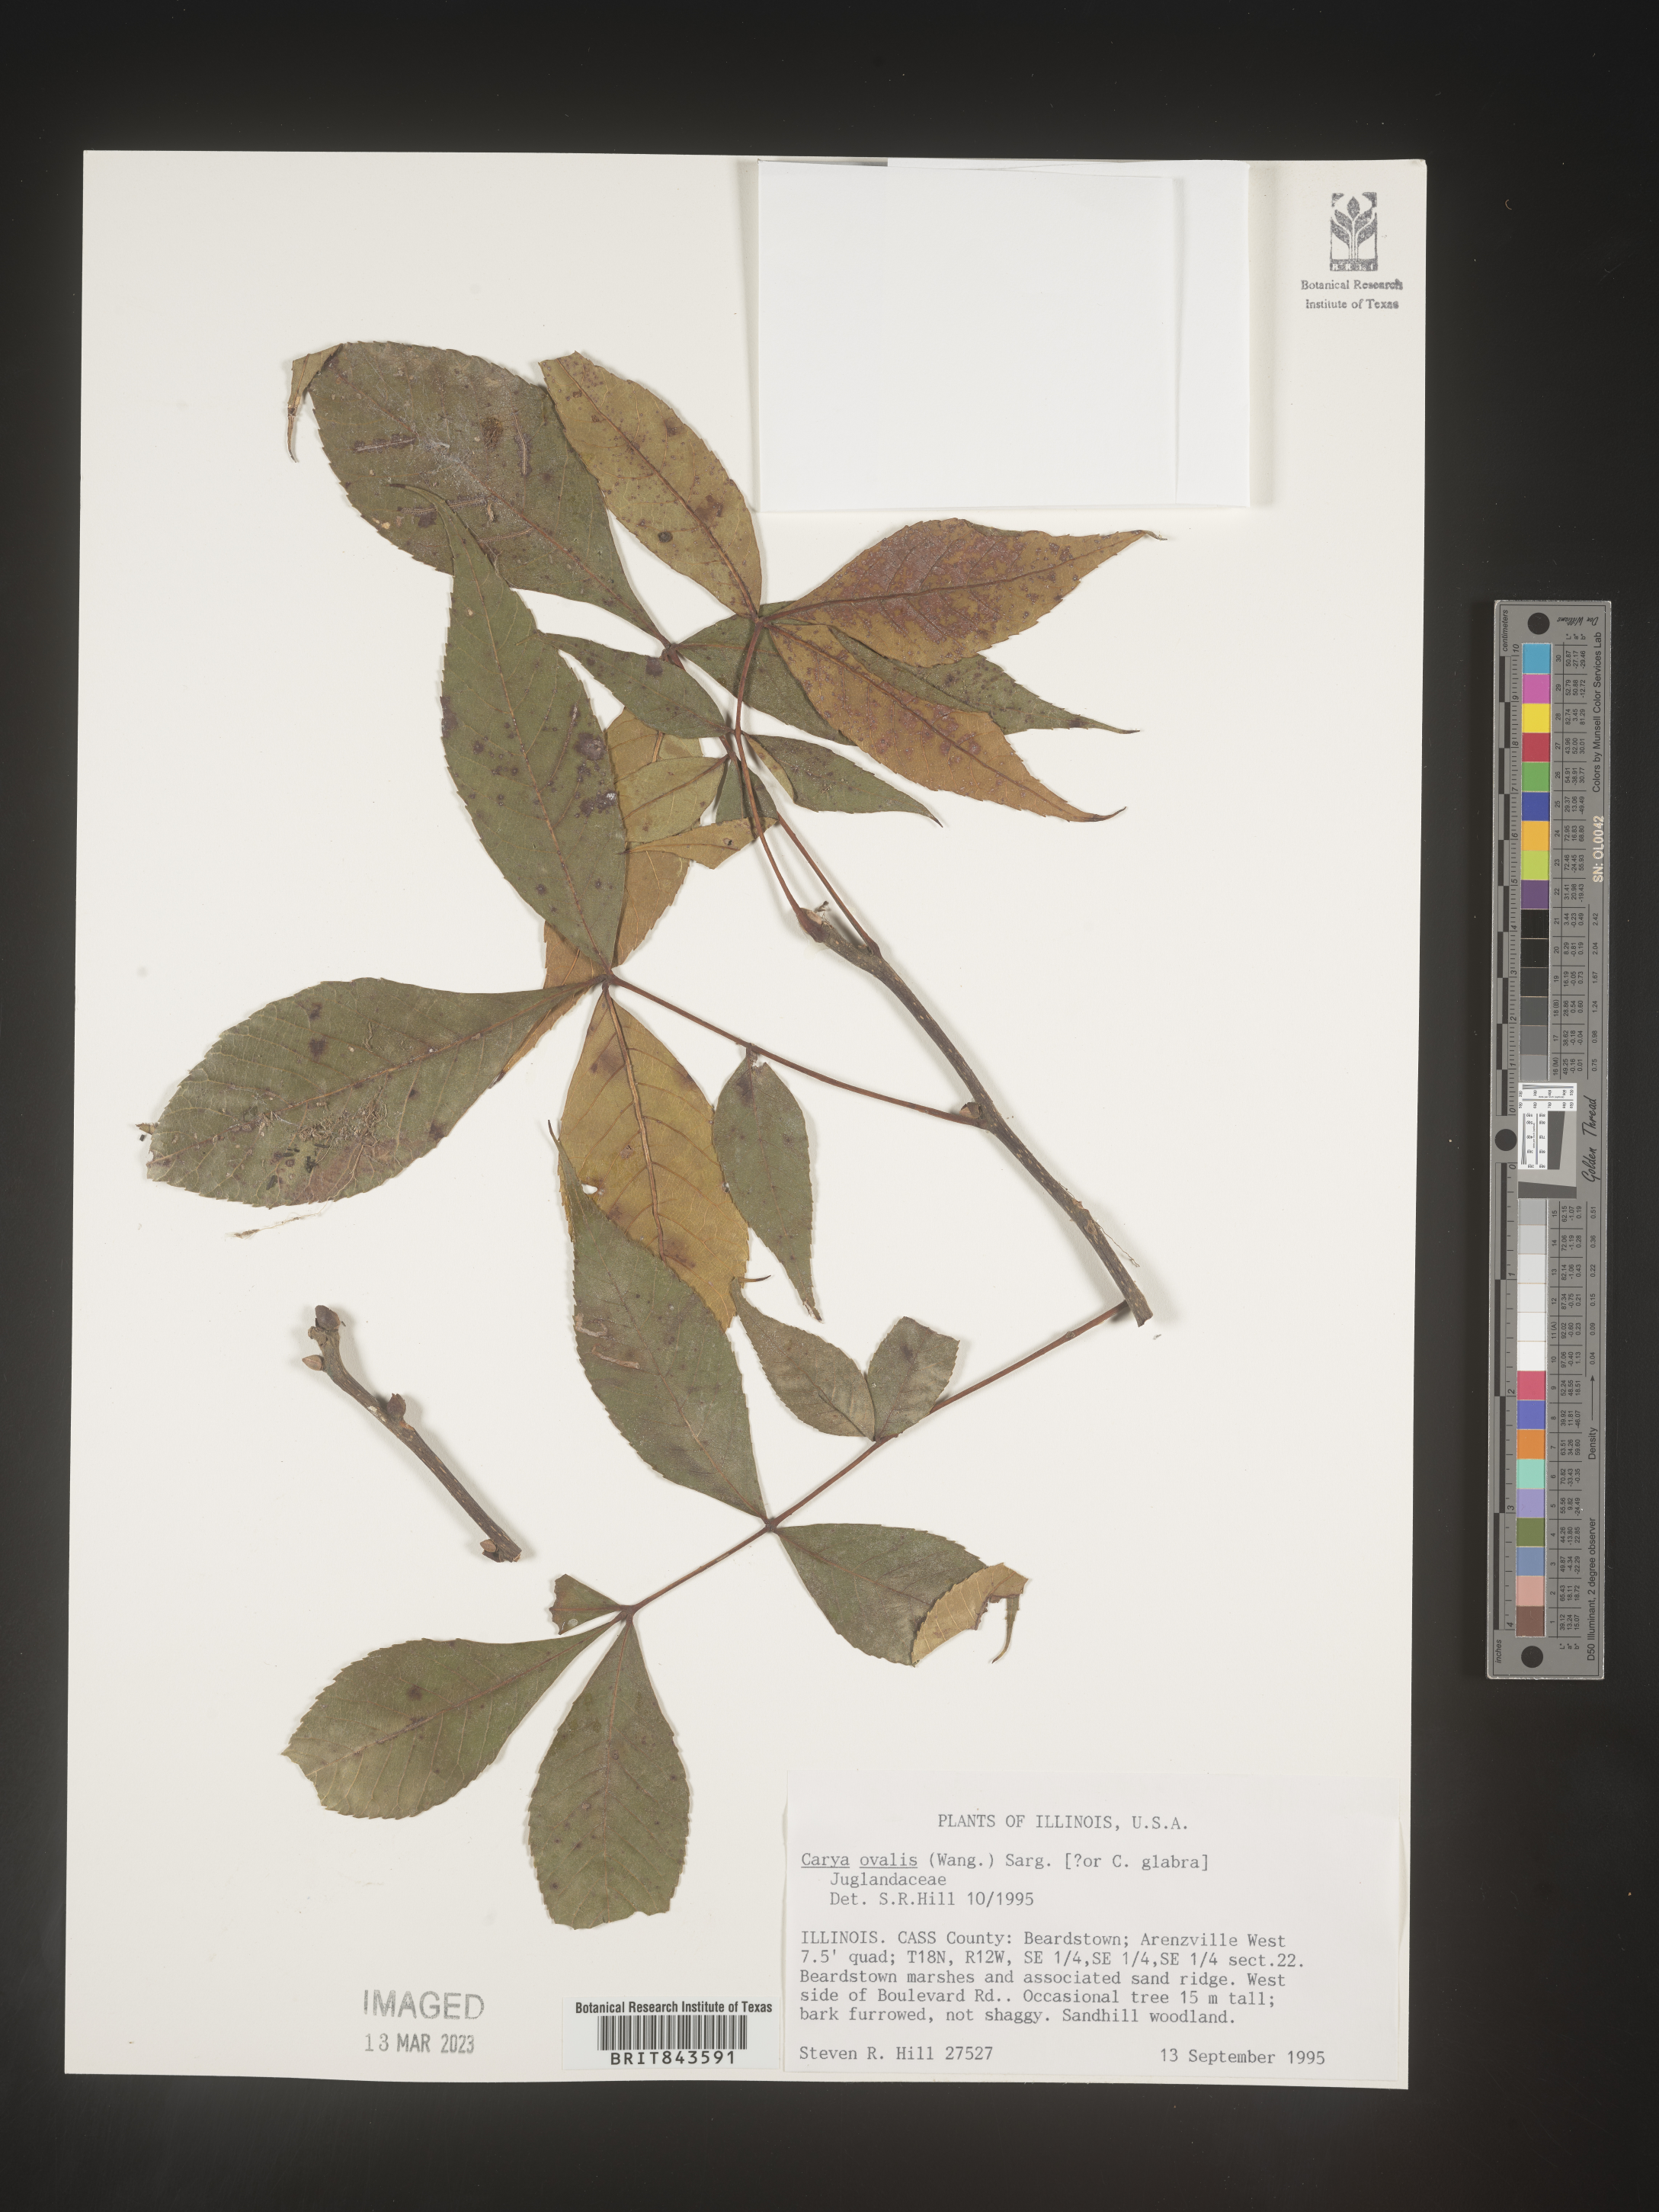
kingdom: Plantae
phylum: Tracheophyta
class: Magnoliopsida
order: Fagales
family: Juglandaceae
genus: Carya
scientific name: Carya ovalis
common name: False shagbark
